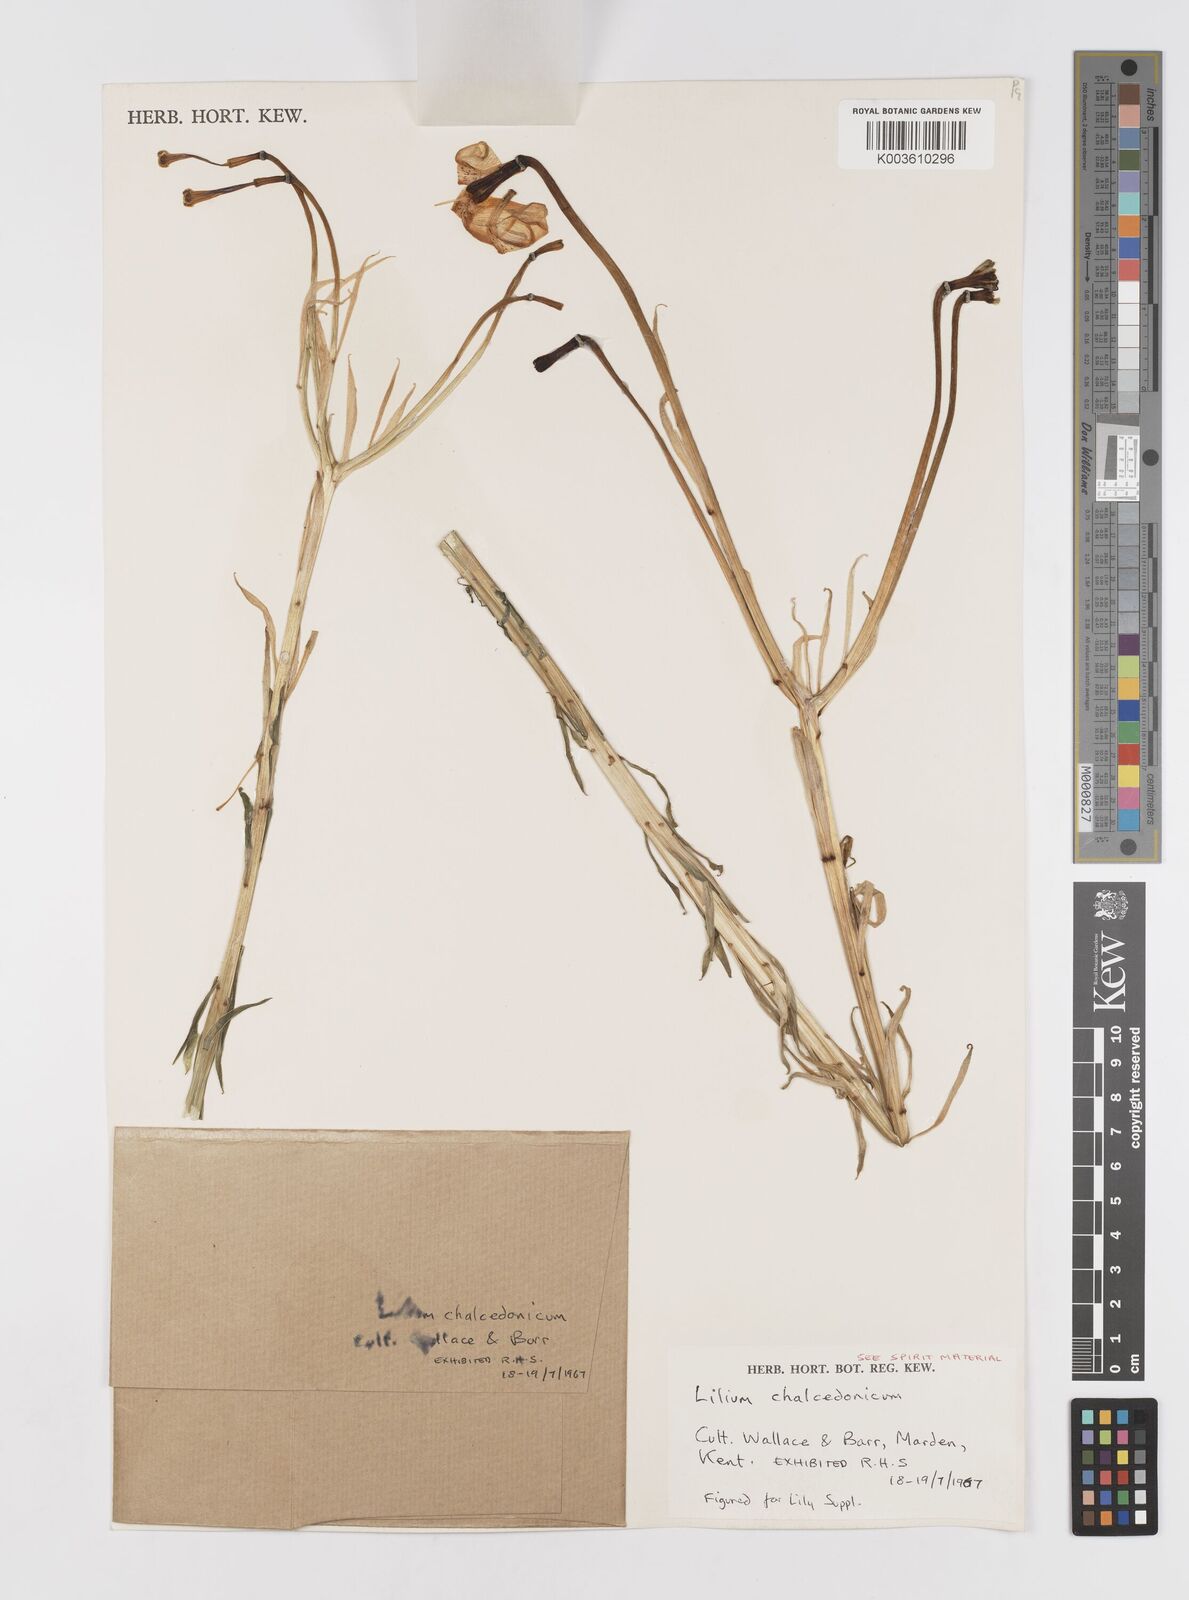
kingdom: Plantae
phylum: Tracheophyta
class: Liliopsida
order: Liliales
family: Liliaceae
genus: Lilium
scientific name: Lilium chalcedonicum
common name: Red martagon of constantinople
